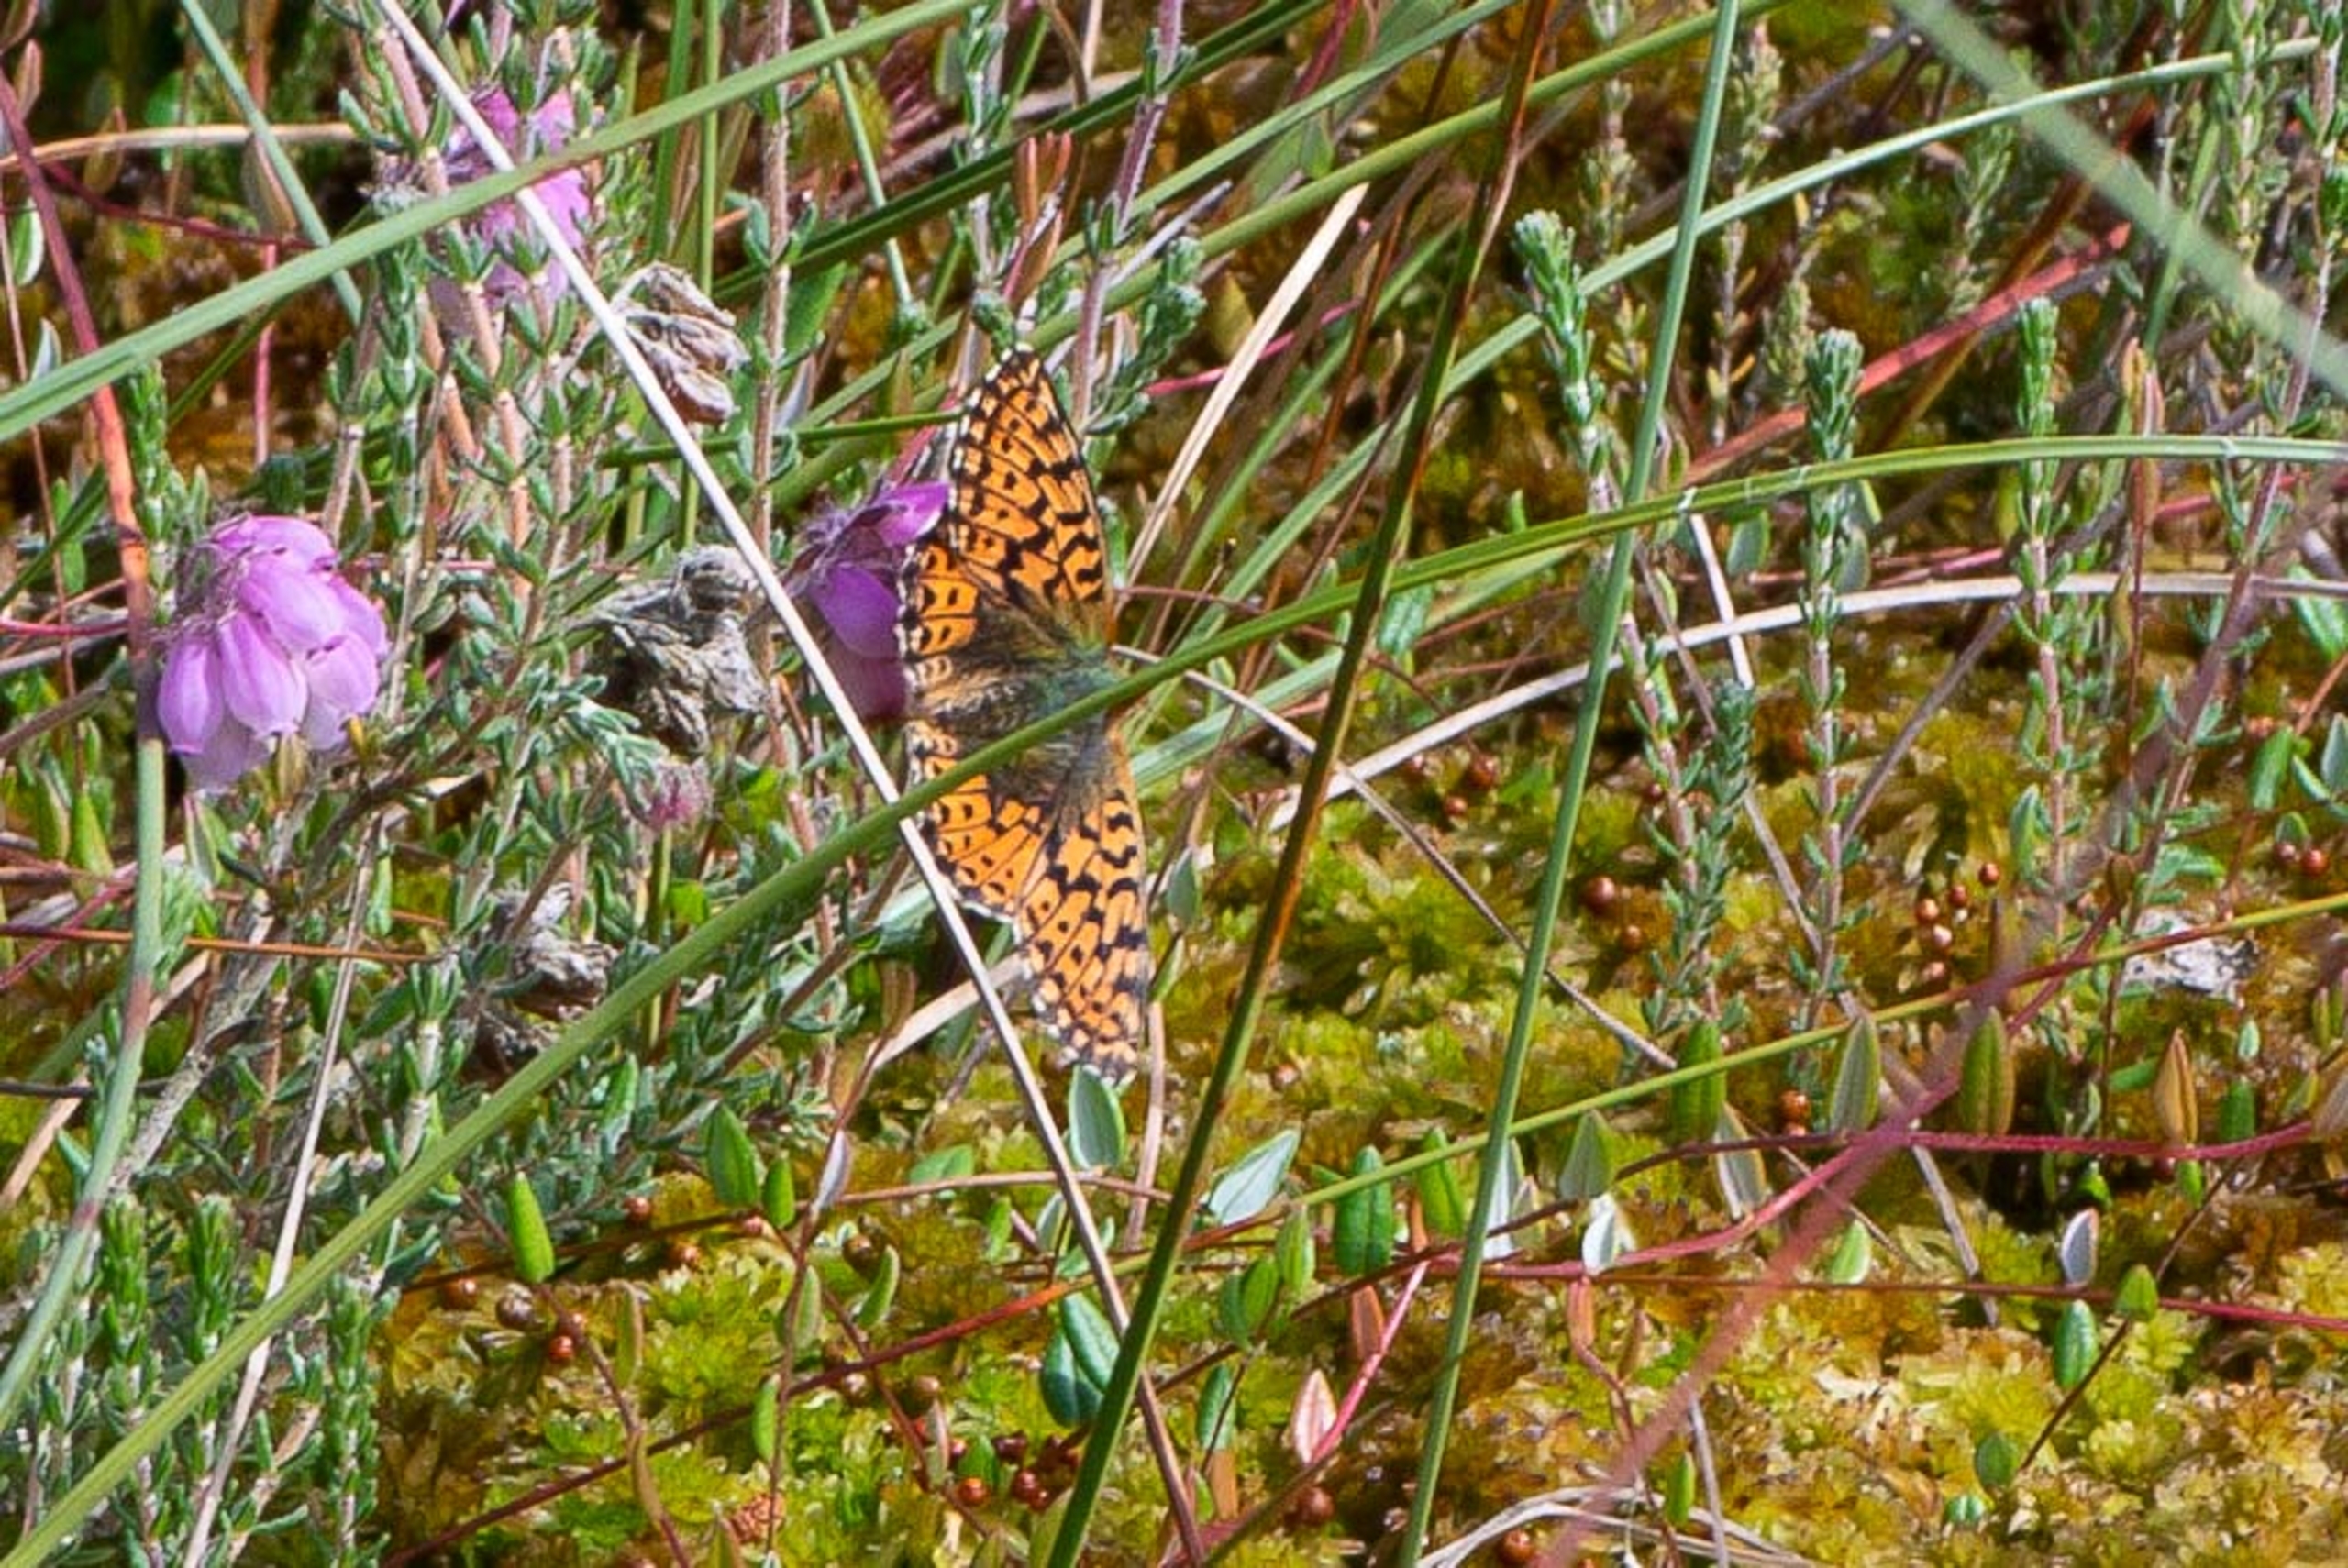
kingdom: Animalia
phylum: Arthropoda
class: Insecta
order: Lepidoptera
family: Nymphalidae
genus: Boloria
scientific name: Boloria aquilonaris
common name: Moseperlemorsommerfugl
